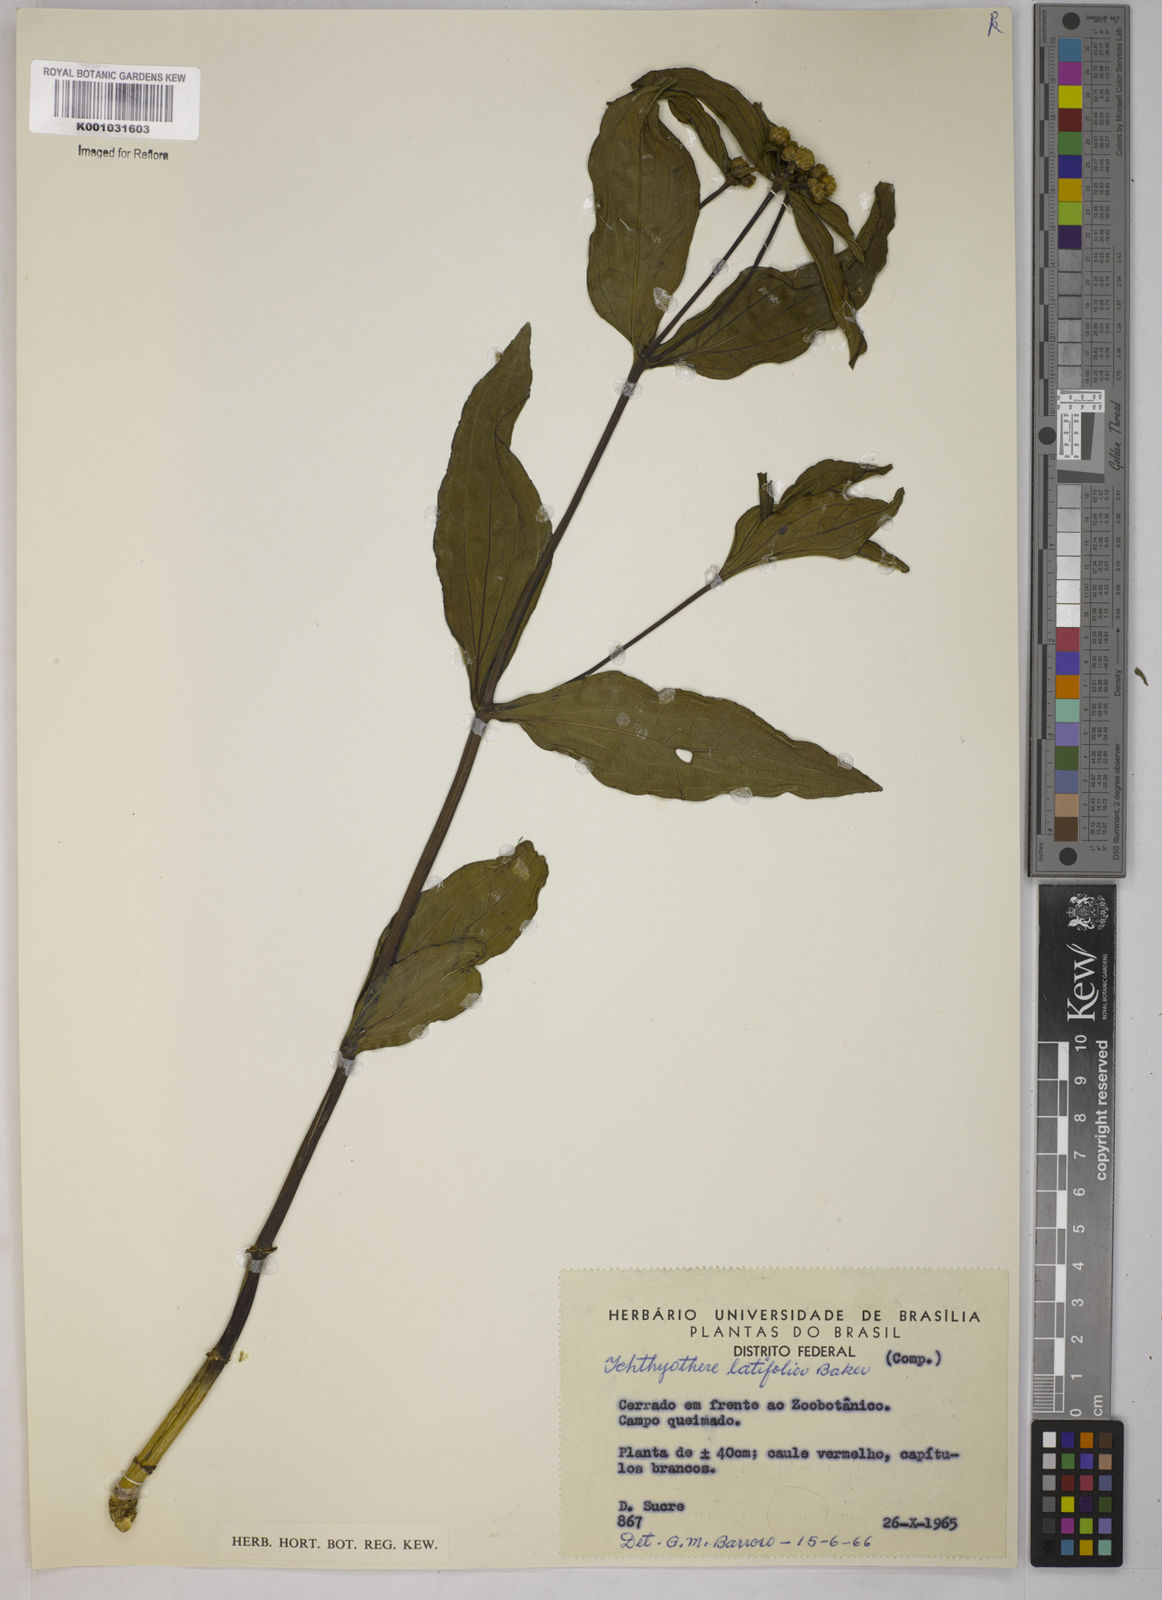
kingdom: Plantae
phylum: Tracheophyta
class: Magnoliopsida
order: Asterales
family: Asteraceae
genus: Ichthyothere
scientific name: Ichthyothere latifolia
